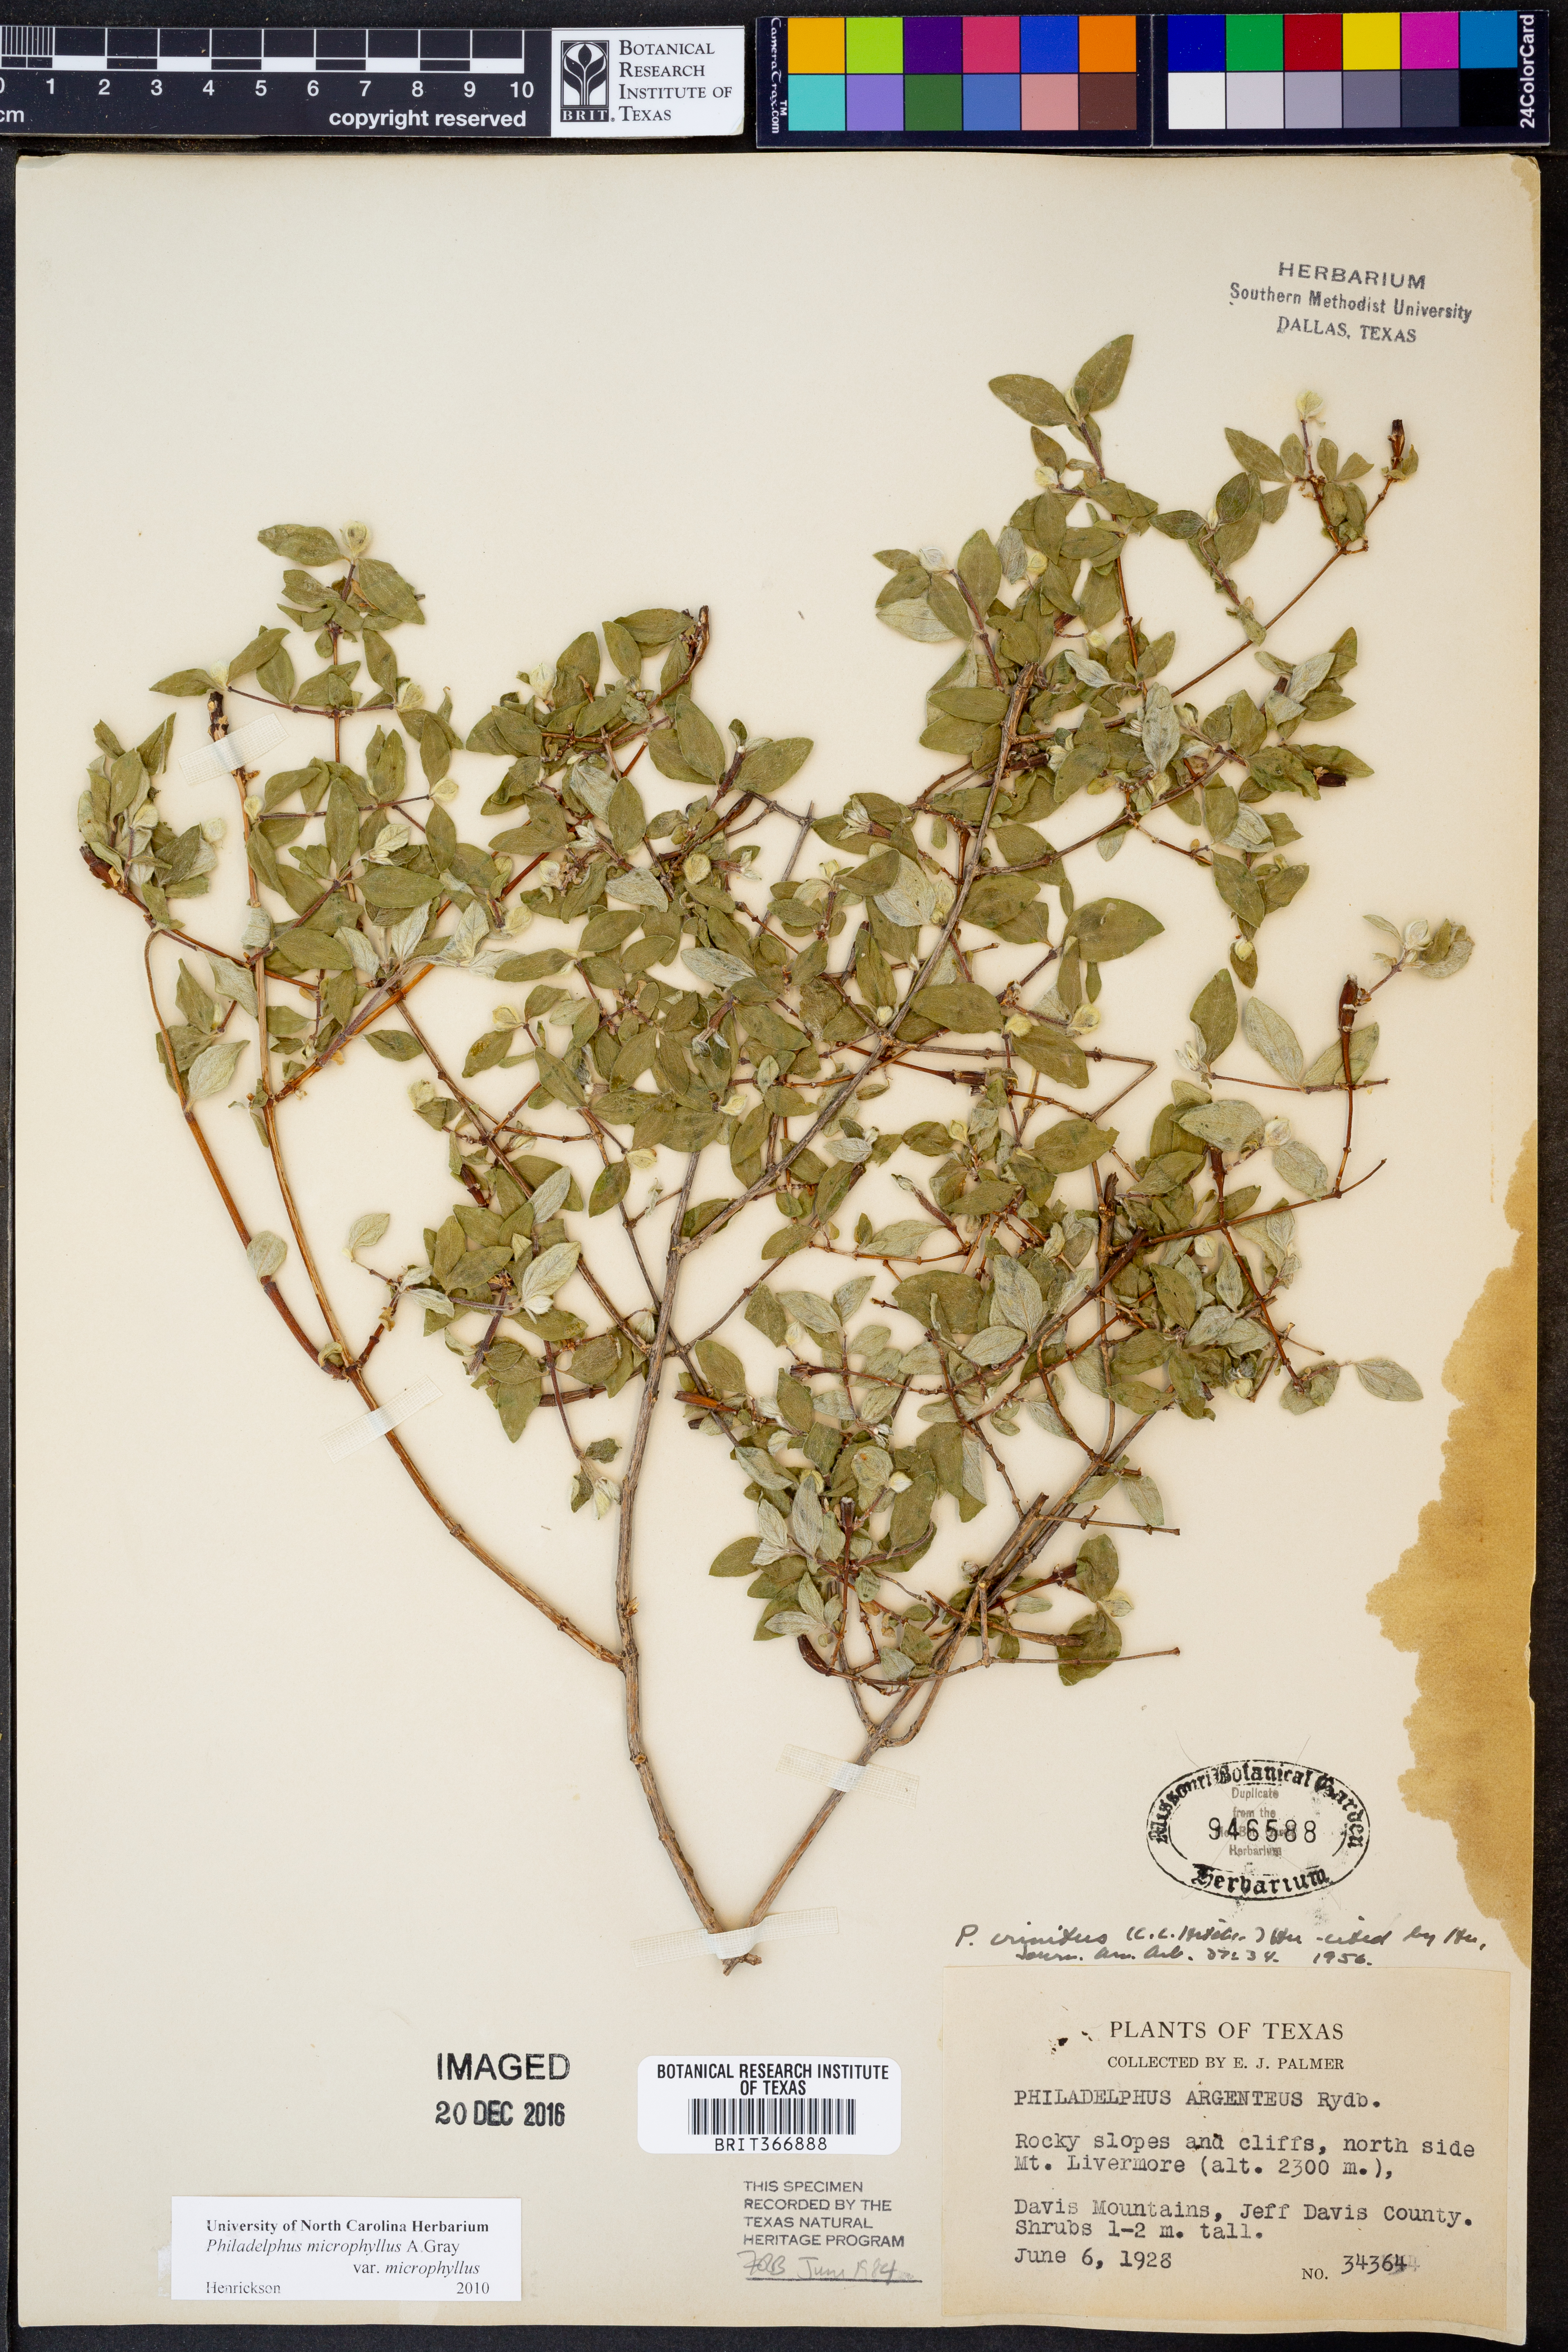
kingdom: Plantae
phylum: Tracheophyta
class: Magnoliopsida
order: Cornales
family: Hydrangeaceae
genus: Philadelphus
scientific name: Philadelphus microphyllus
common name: Desert mock orange
